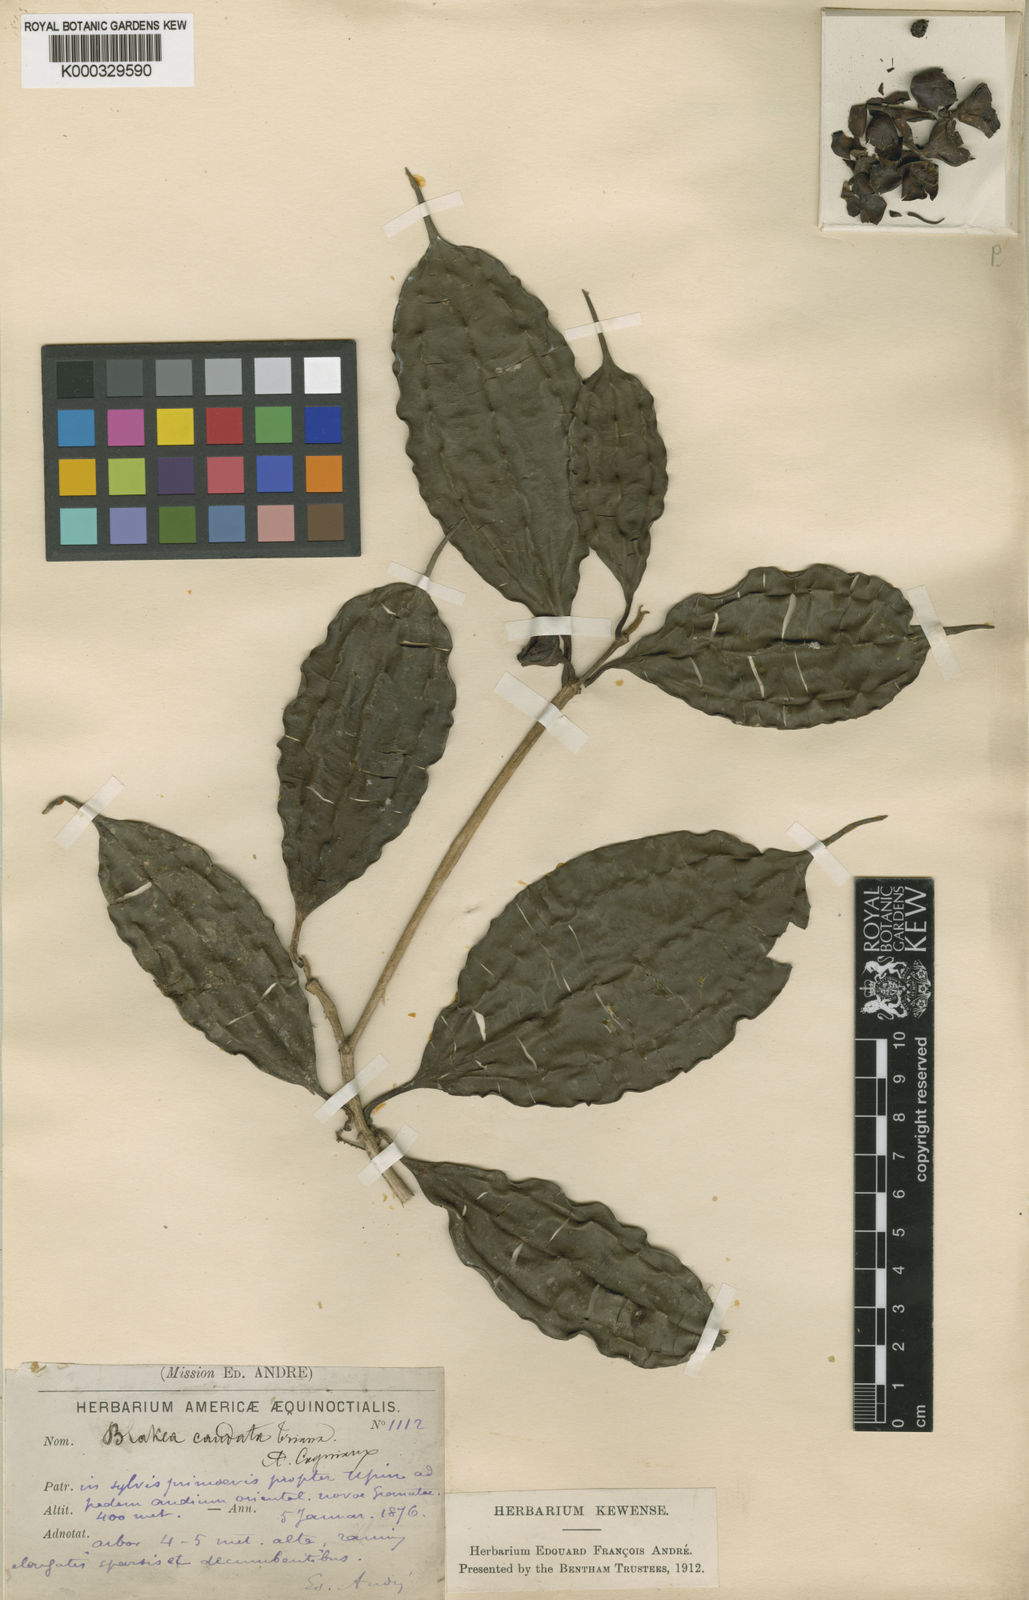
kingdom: Plantae
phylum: Tracheophyta
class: Magnoliopsida
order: Myrtales
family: Melastomataceae
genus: Blakea
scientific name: Blakea rosea
